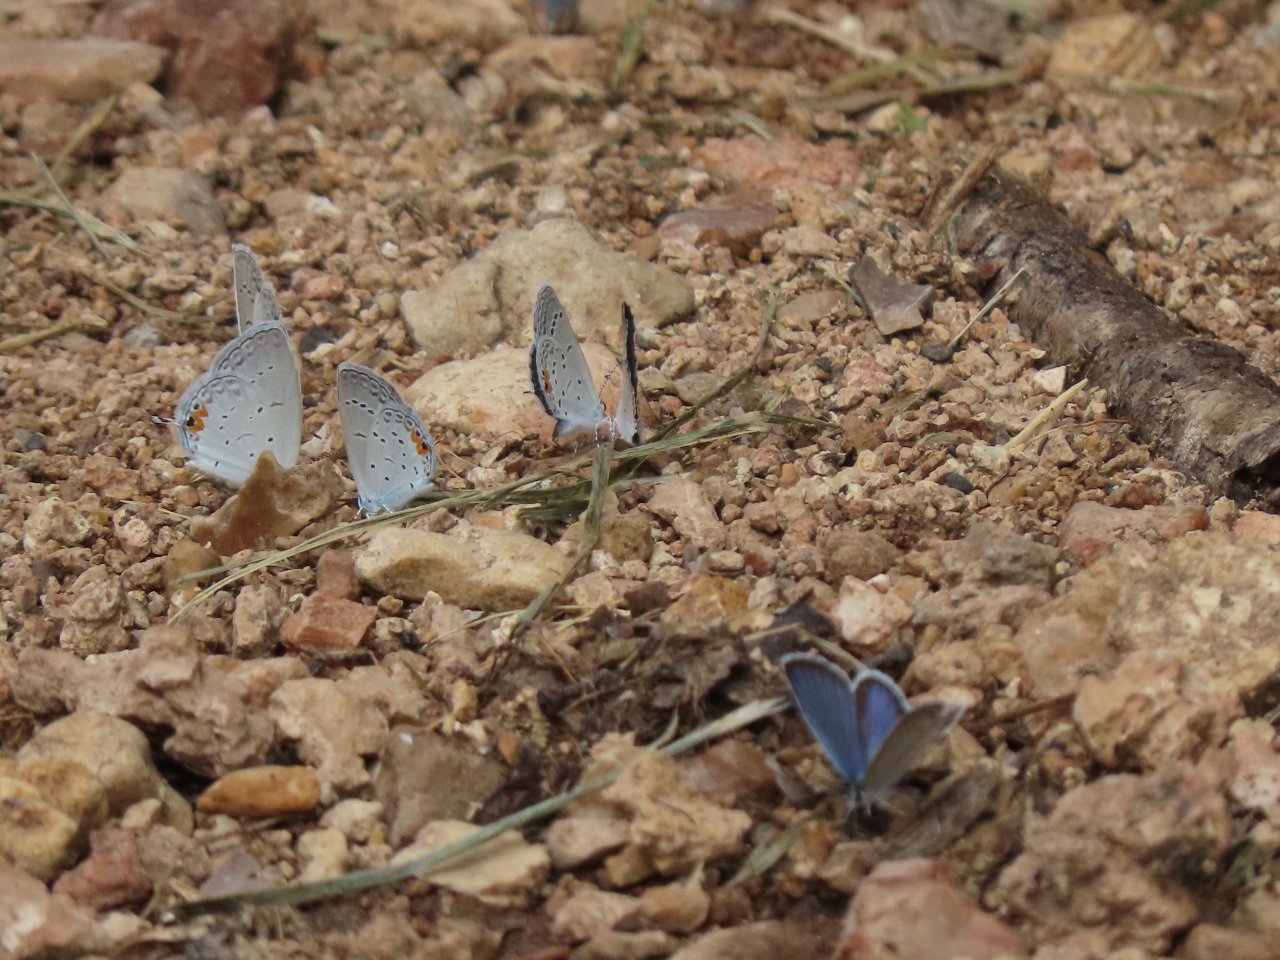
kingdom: Animalia
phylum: Arthropoda
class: Insecta
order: Lepidoptera
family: Lycaenidae
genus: Elkalyce
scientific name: Elkalyce comyntas
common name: Eastern Tailed-Blue
